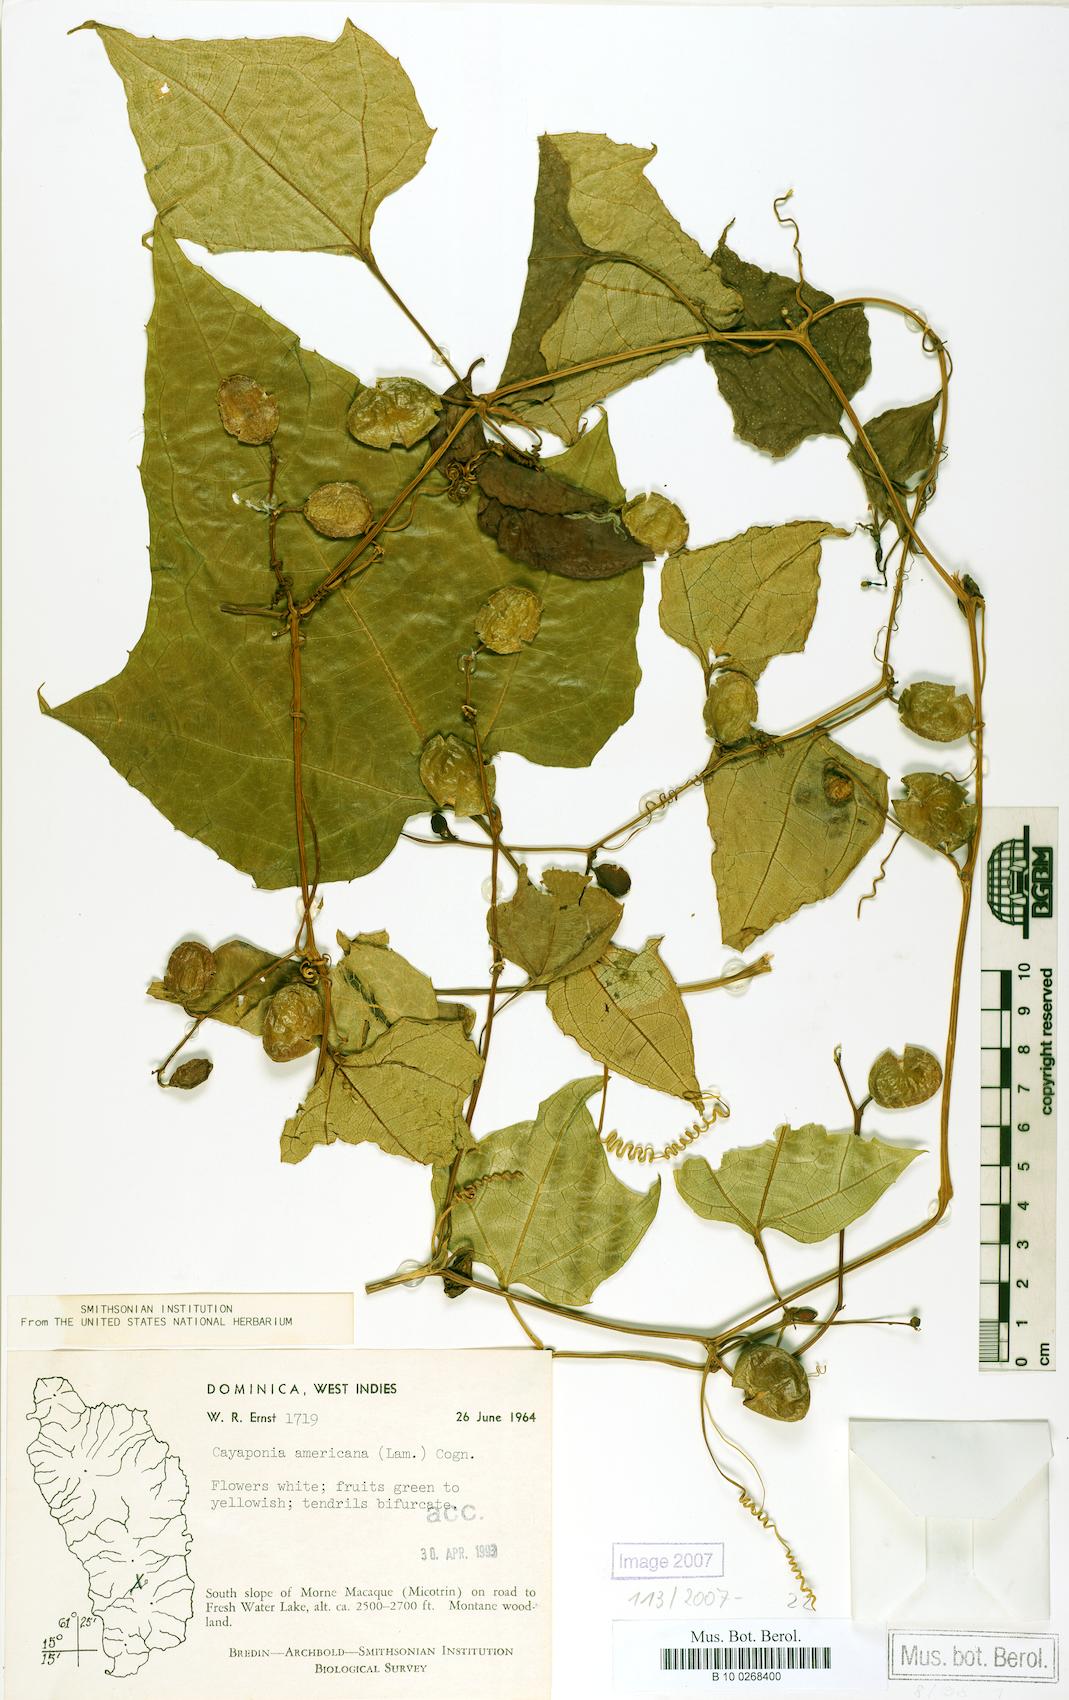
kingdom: Plantae
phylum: Tracheophyta
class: Magnoliopsida
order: Cucurbitales
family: Cucurbitaceae
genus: Cayaponia
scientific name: Cayaponia americana
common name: American melonleaf
